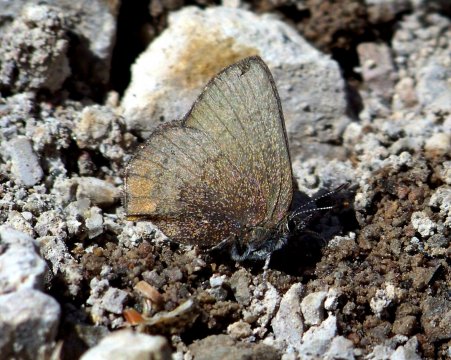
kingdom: Animalia
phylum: Arthropoda
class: Insecta
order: Lepidoptera
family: Lycaenidae
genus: Incisalia
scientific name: Incisalia irioides
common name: Brown Elfin
